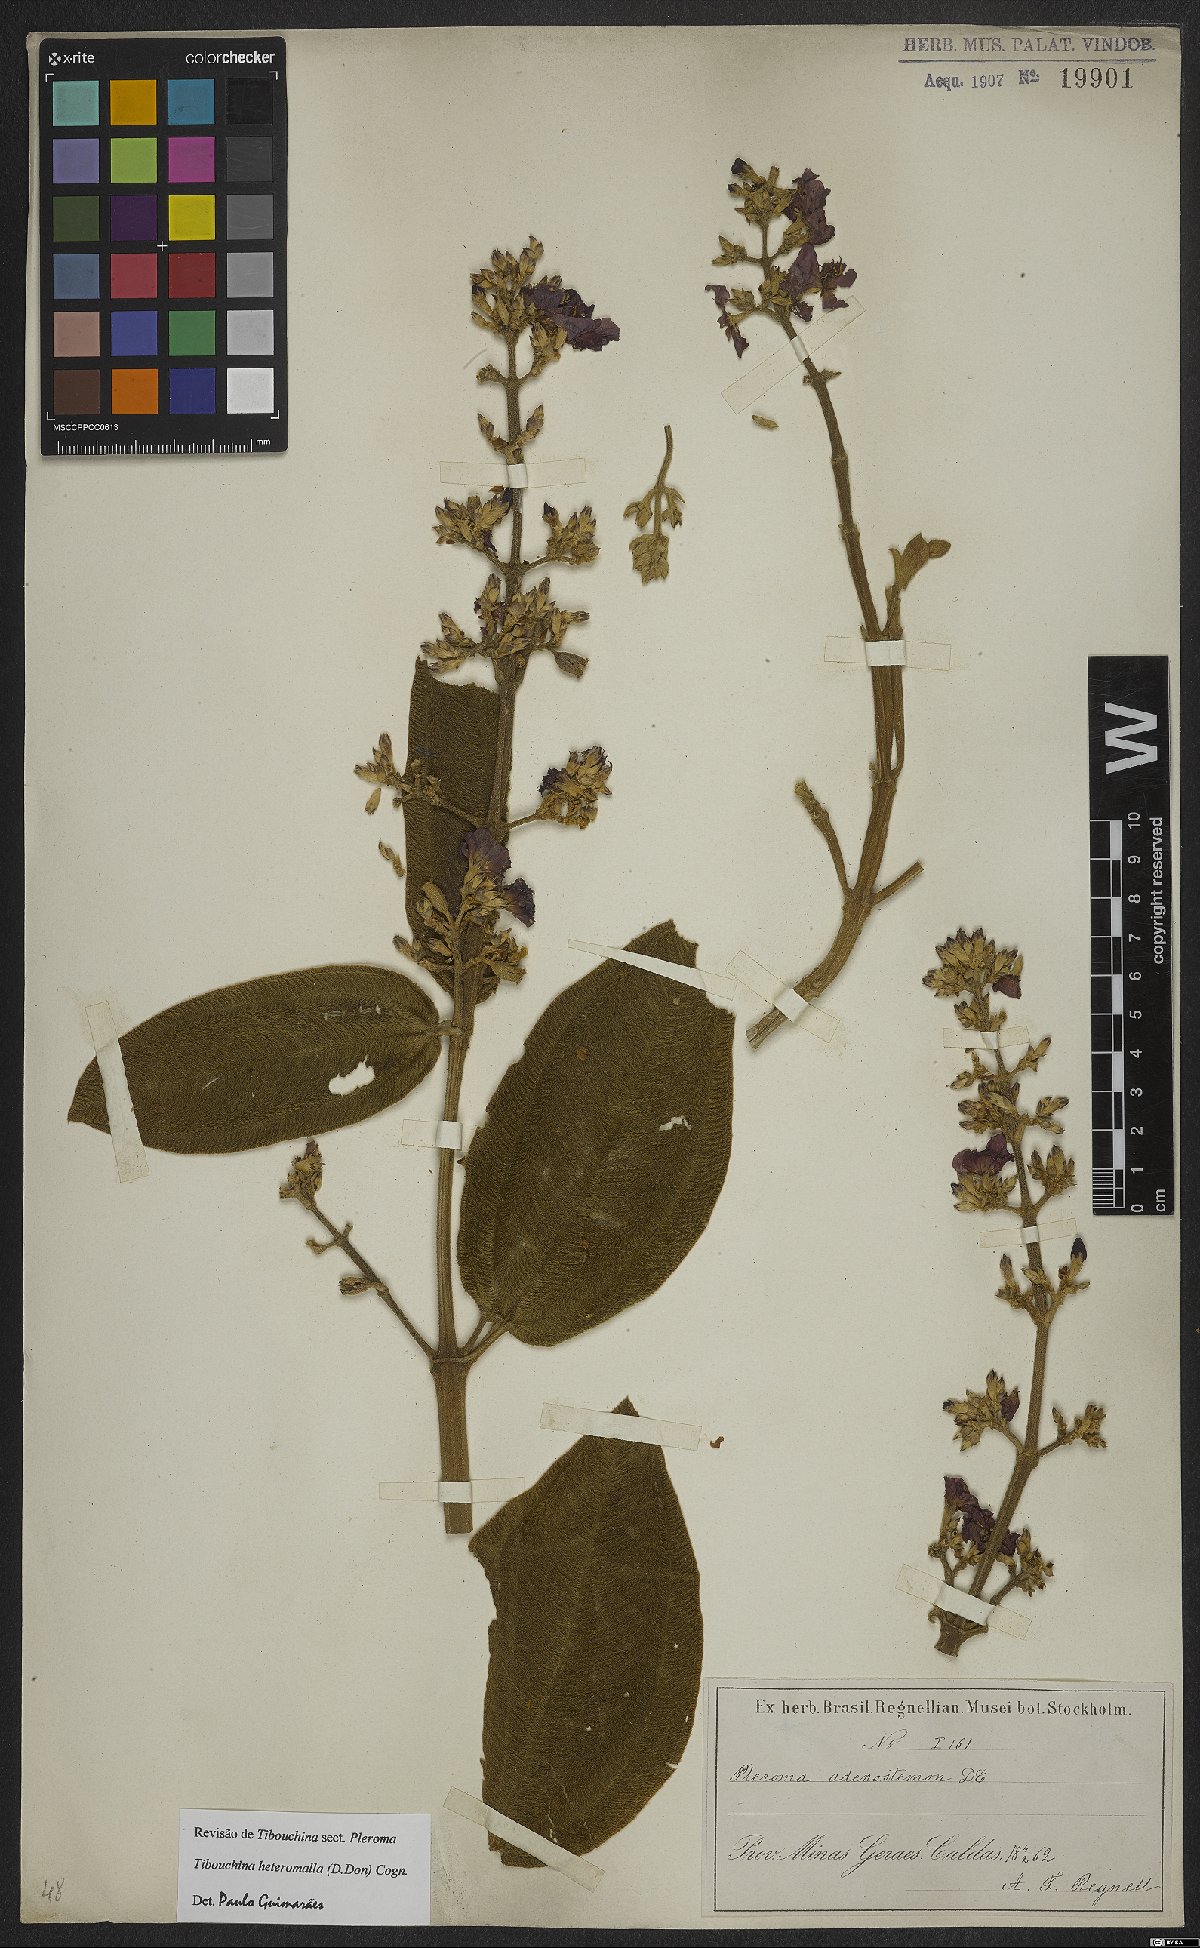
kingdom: Plantae
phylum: Tracheophyta
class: Magnoliopsida
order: Myrtales
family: Melastomataceae
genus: Pleroma
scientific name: Pleroma heteromallum
